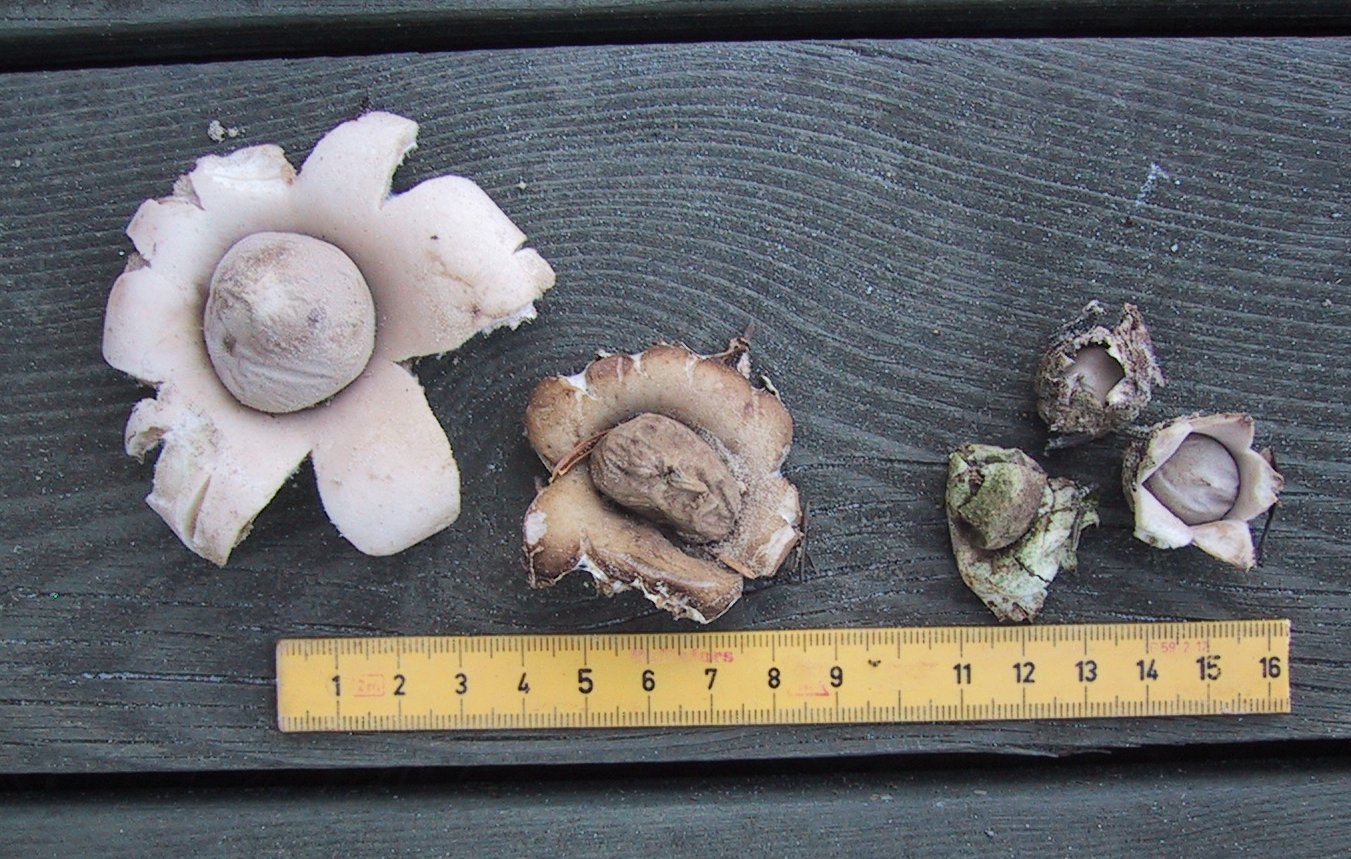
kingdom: Fungi
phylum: Basidiomycota
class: Agaricomycetes
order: Geastrales
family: Geastraceae
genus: Geastrum
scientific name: Geastrum fimbriatum
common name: frynset stjernebold
